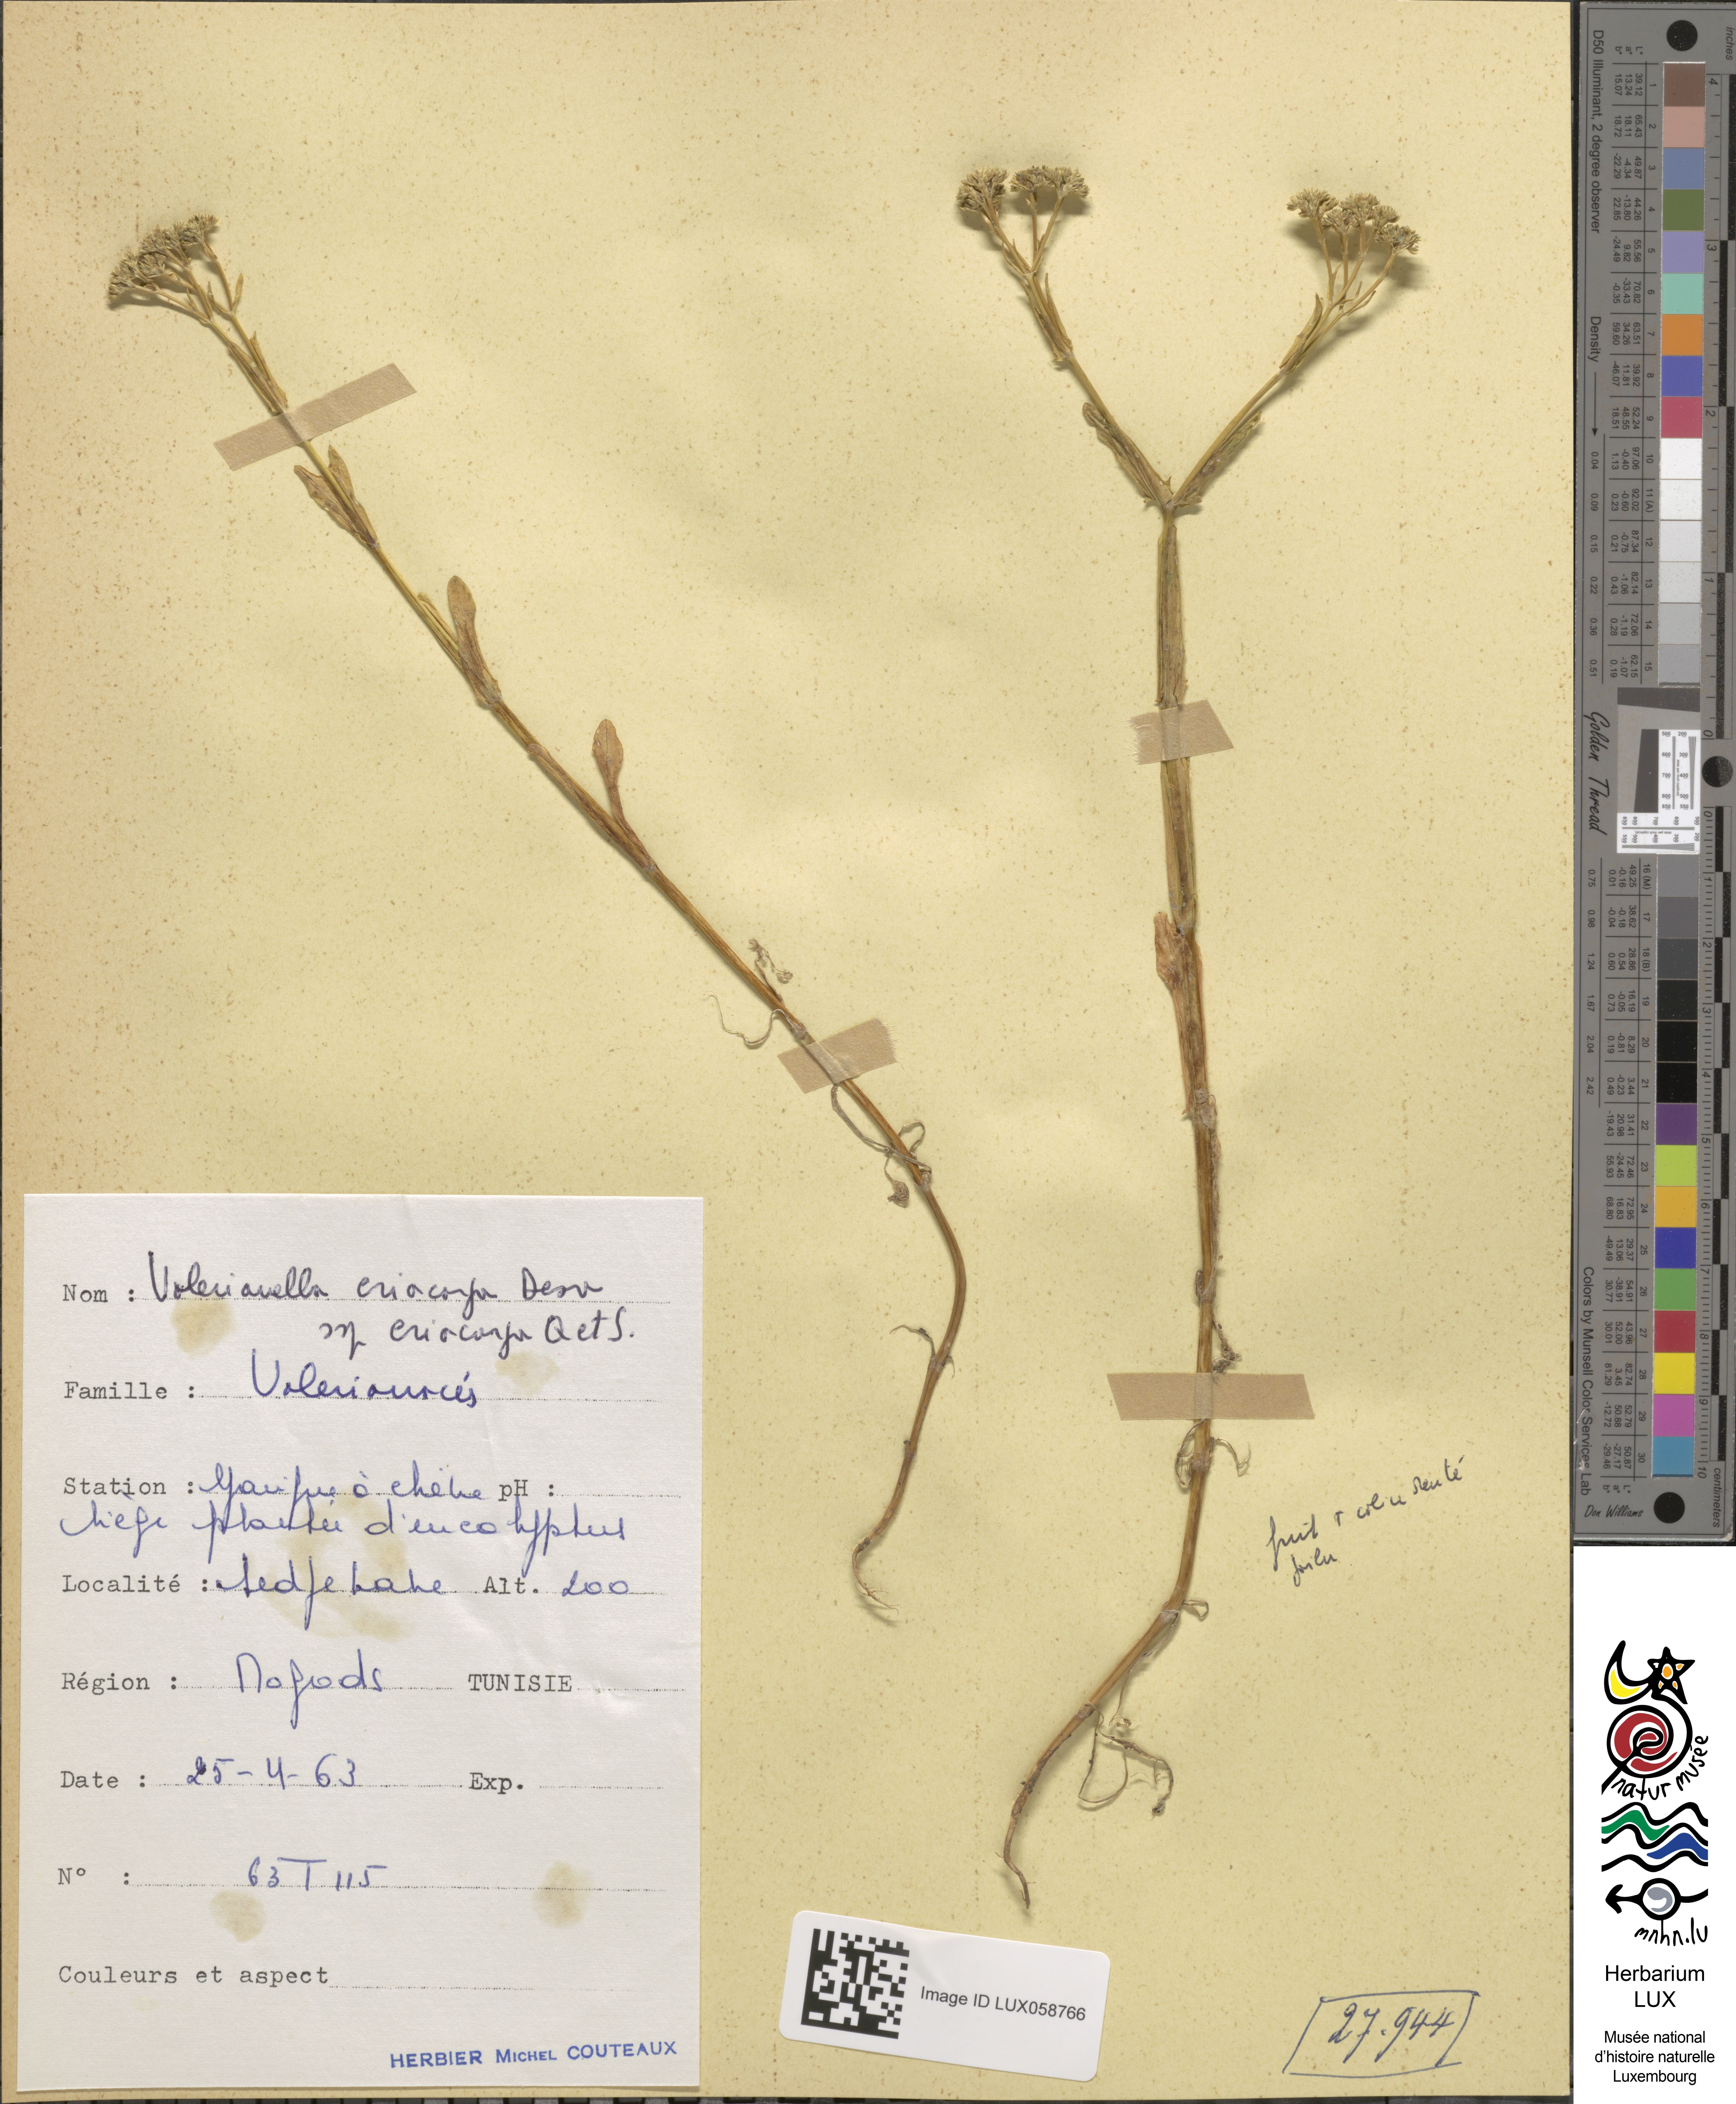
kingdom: Plantae
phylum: Tracheophyta
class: Magnoliopsida
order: Dipsacales
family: Caprifoliaceae
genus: Valerianella
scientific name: Valerianella eriocarpa
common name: Hairy-fruited cornsalad
